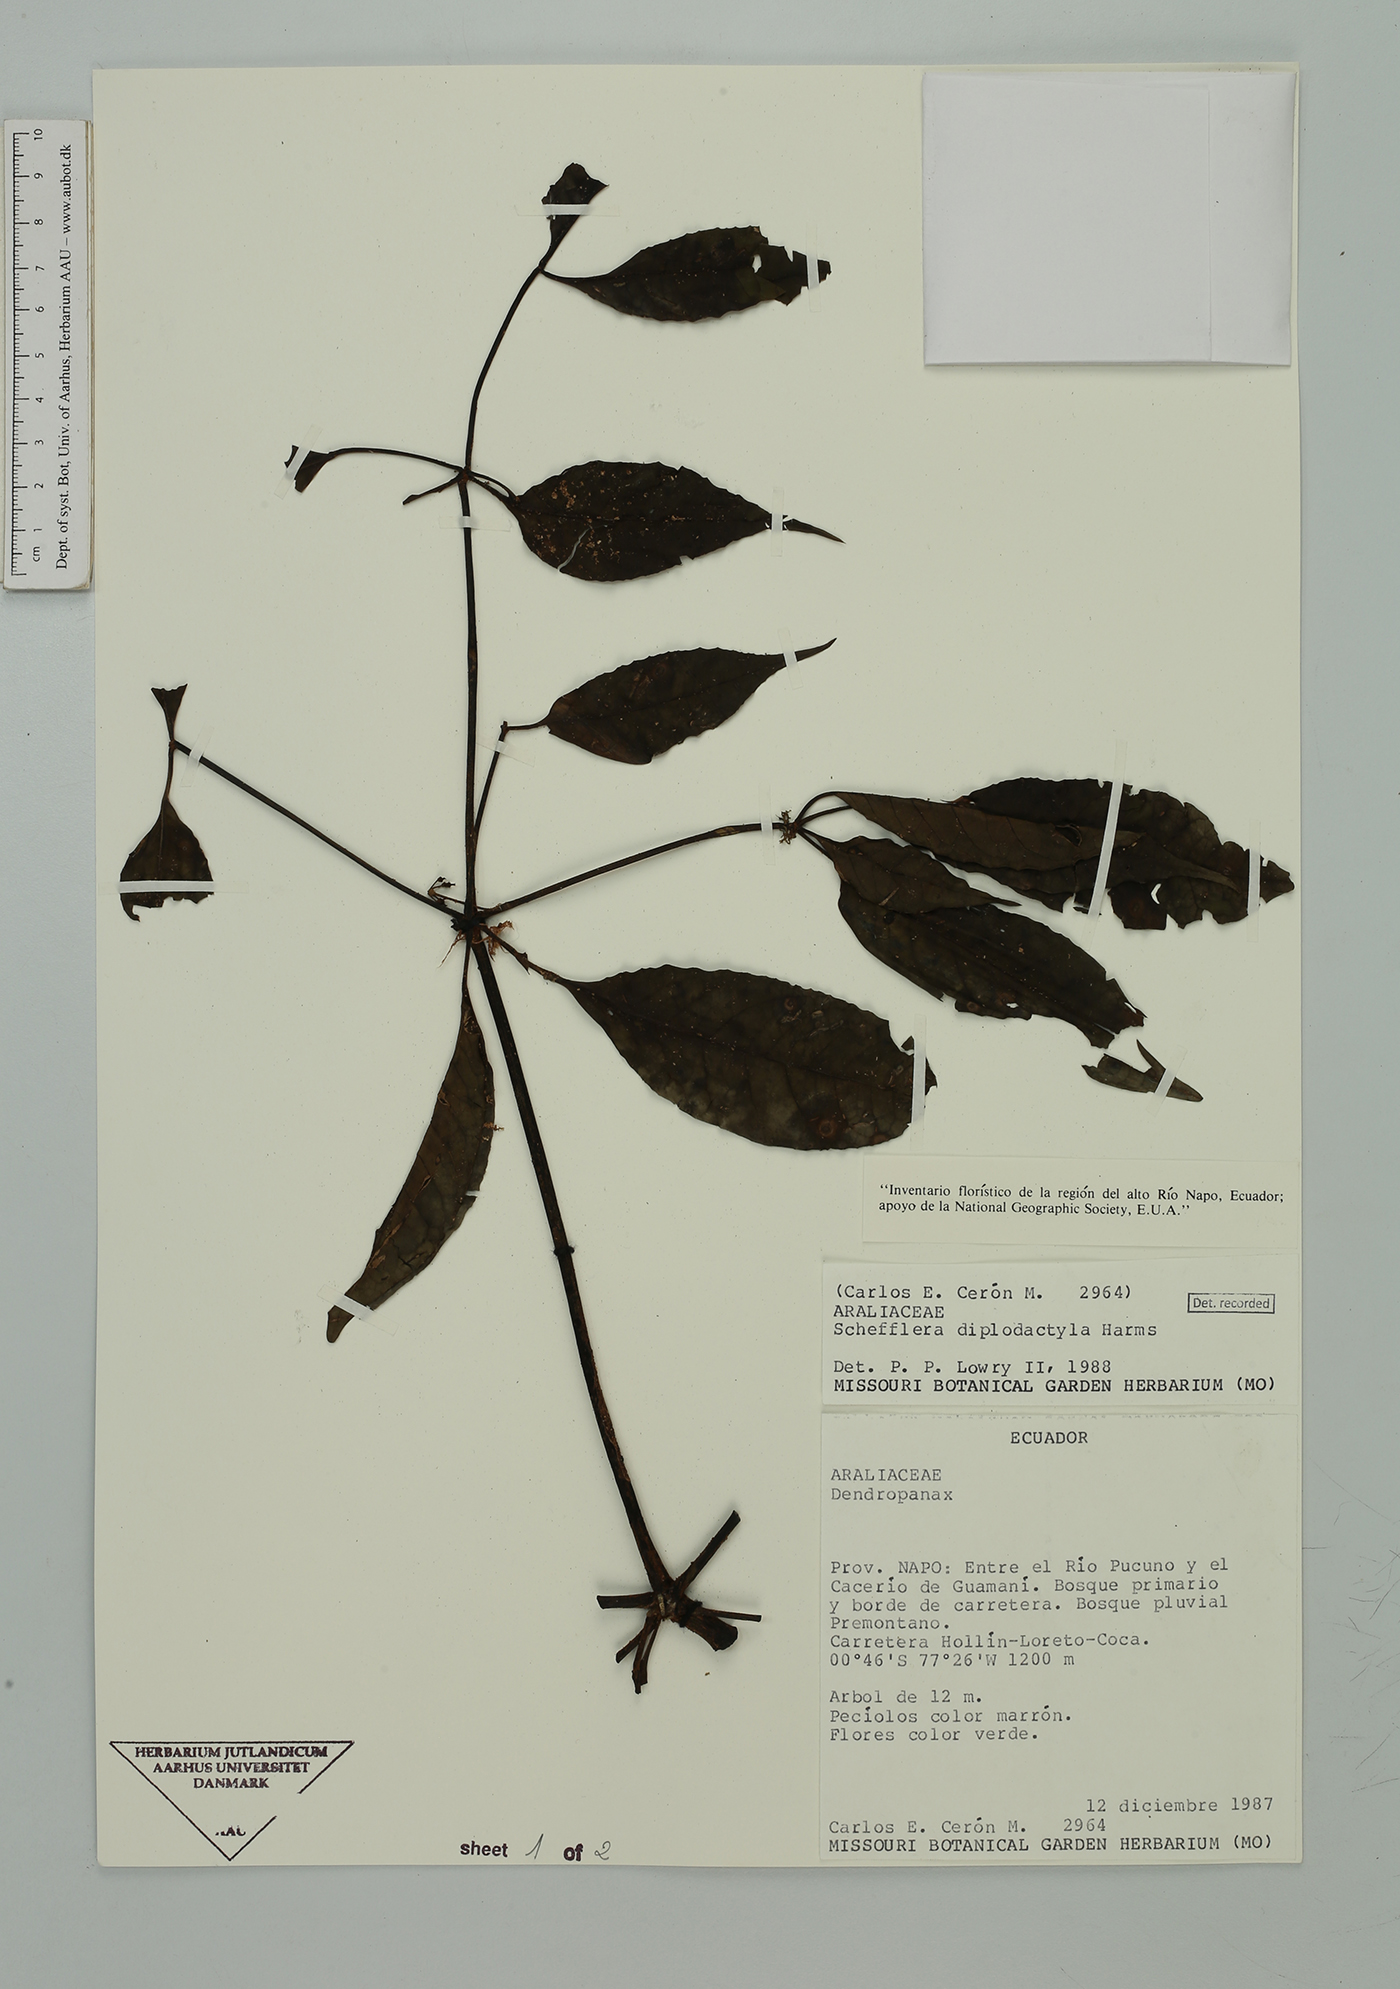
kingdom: Plantae
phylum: Tracheophyta
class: Magnoliopsida
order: Apiales
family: Araliaceae
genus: Sciodaphyllum
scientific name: Sciodaphyllum diplodactylum
